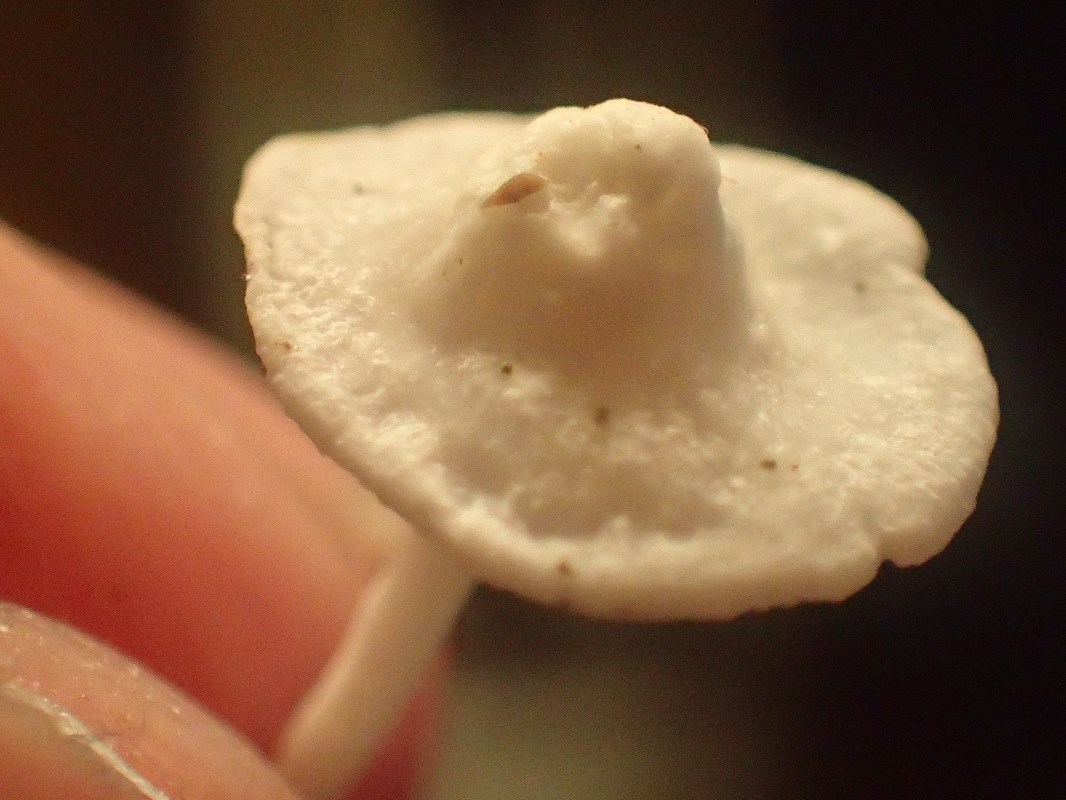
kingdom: Fungi
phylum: Basidiomycota
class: Agaricomycetes
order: Agaricales
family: Mycenaceae
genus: Hemimycena
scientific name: Hemimycena lactea
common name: mælkehvid huesvamp
